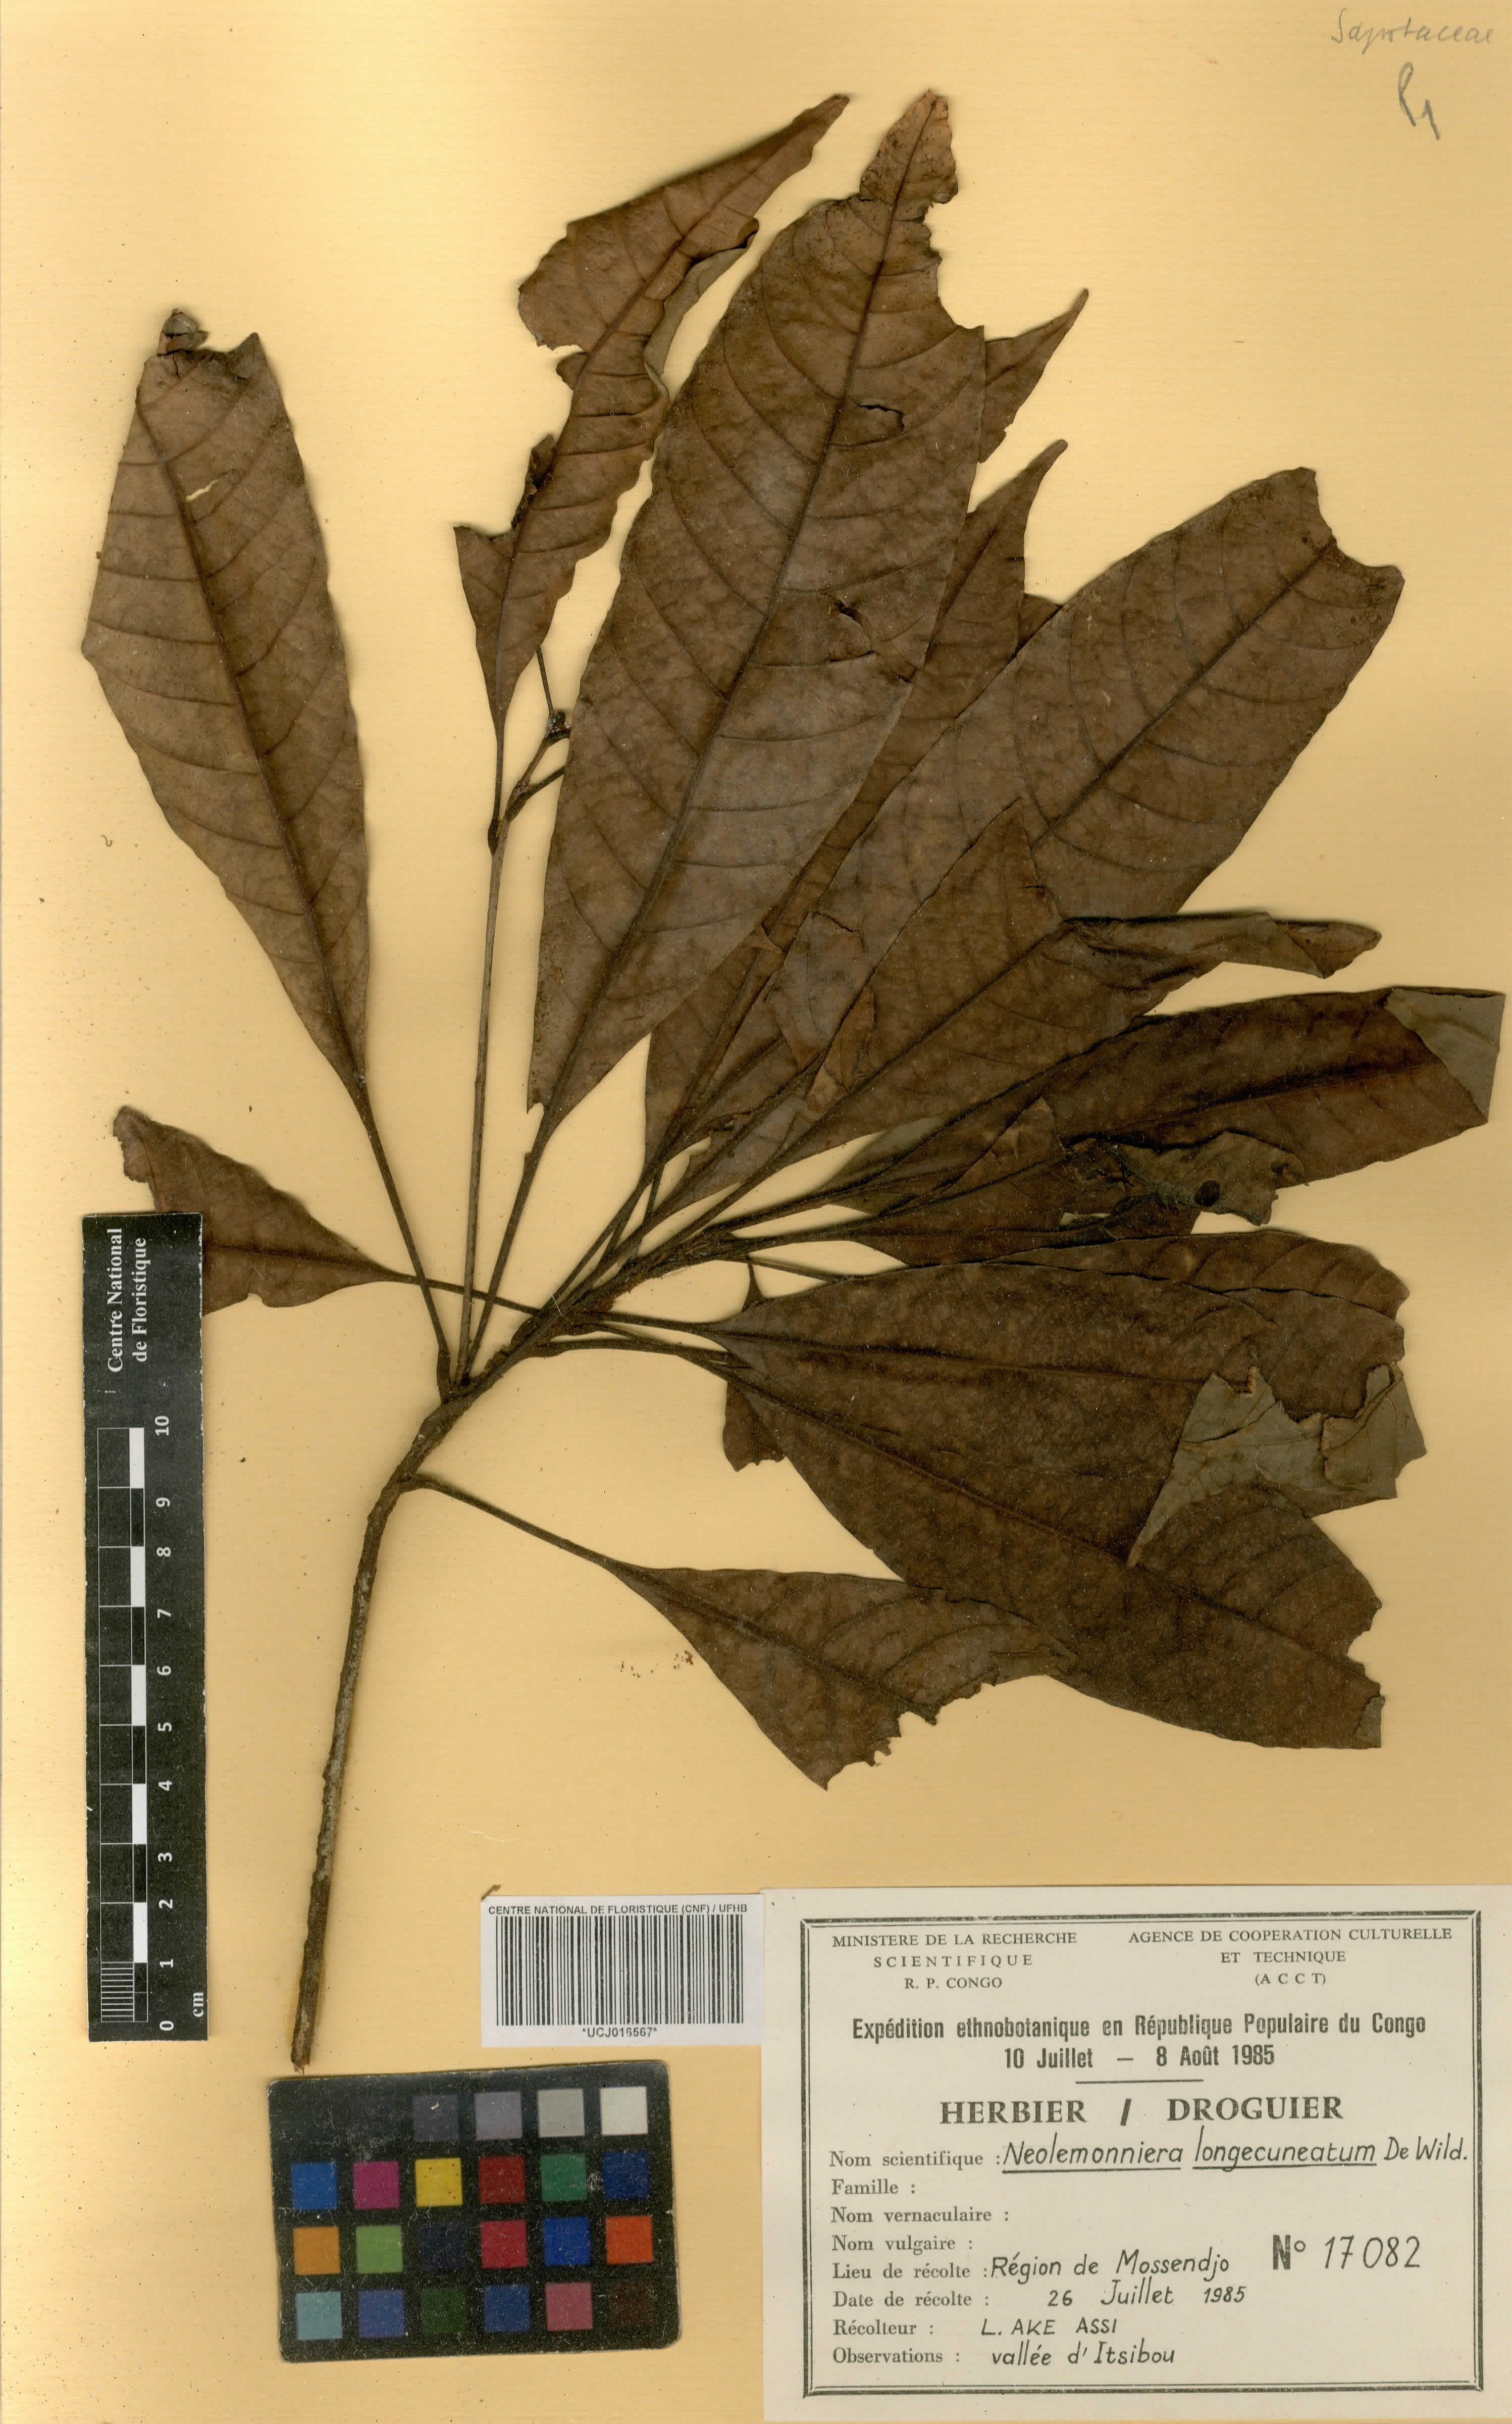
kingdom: Plantae
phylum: Tracheophyta
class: Magnoliopsida
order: Ericales
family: Sapotaceae
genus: Neolemonniera
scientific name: Neolemonniera
